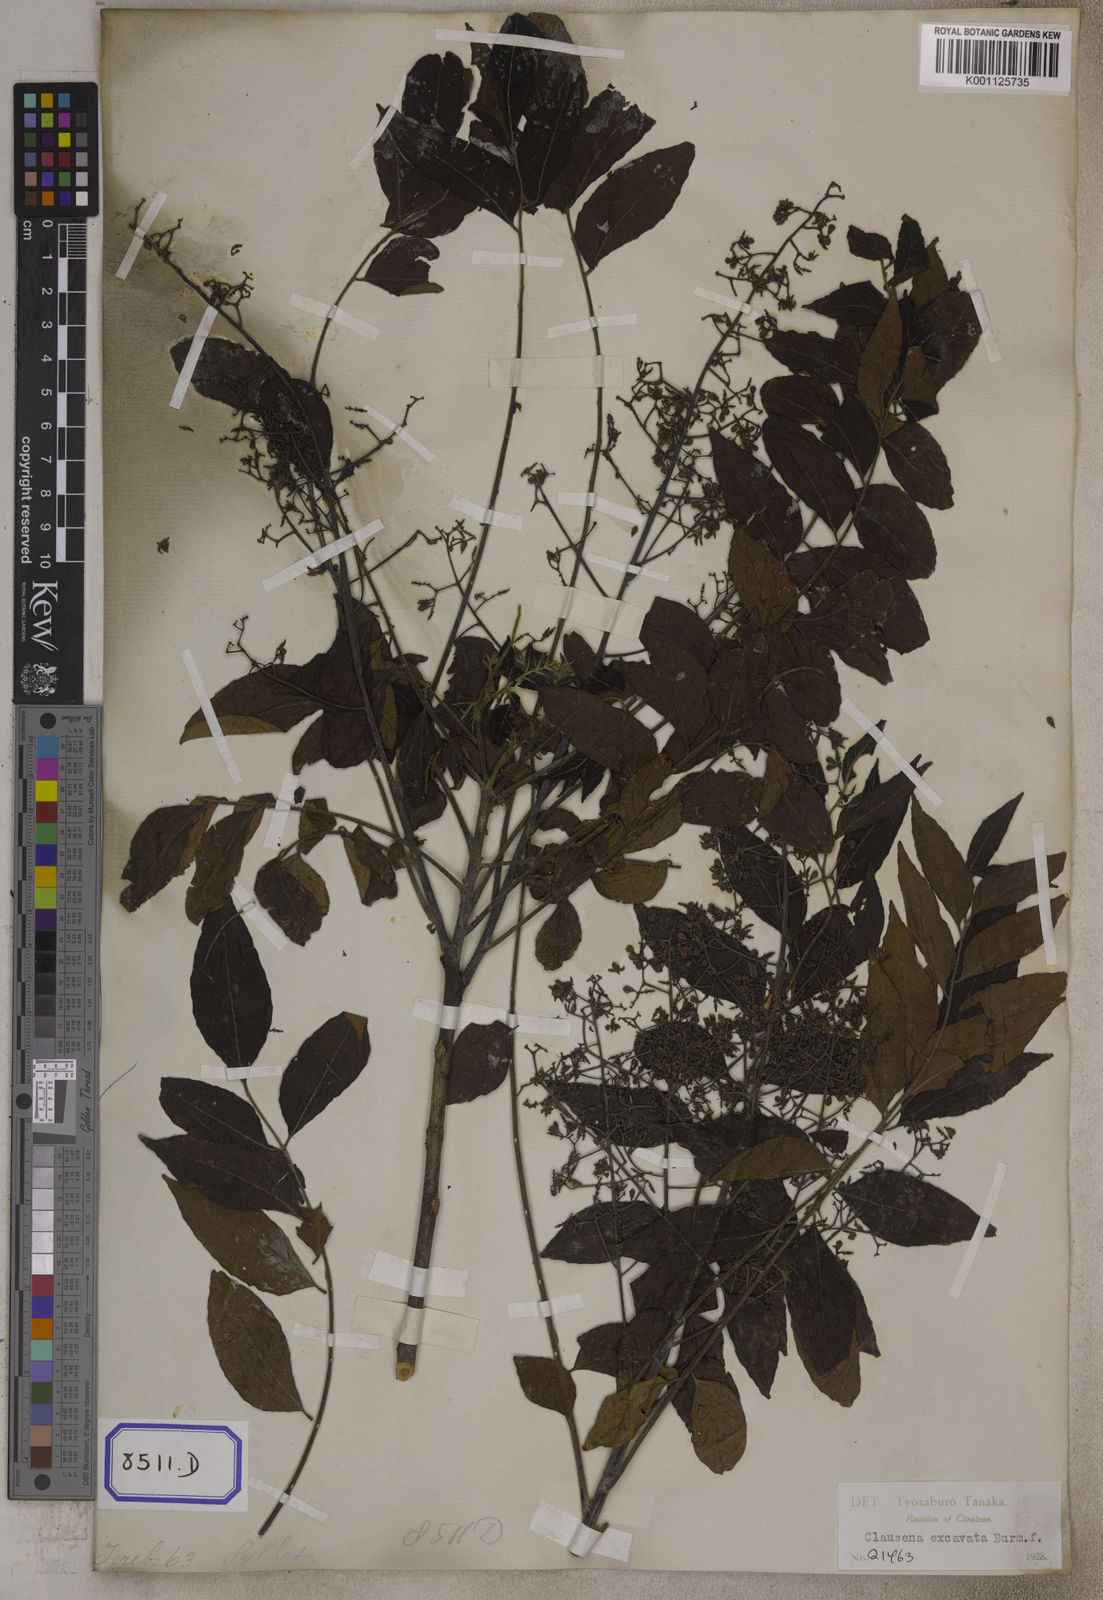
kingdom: Plantae
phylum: Tracheophyta
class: Magnoliopsida
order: Sapindales
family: Rutaceae
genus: Clausena
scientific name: Clausena
